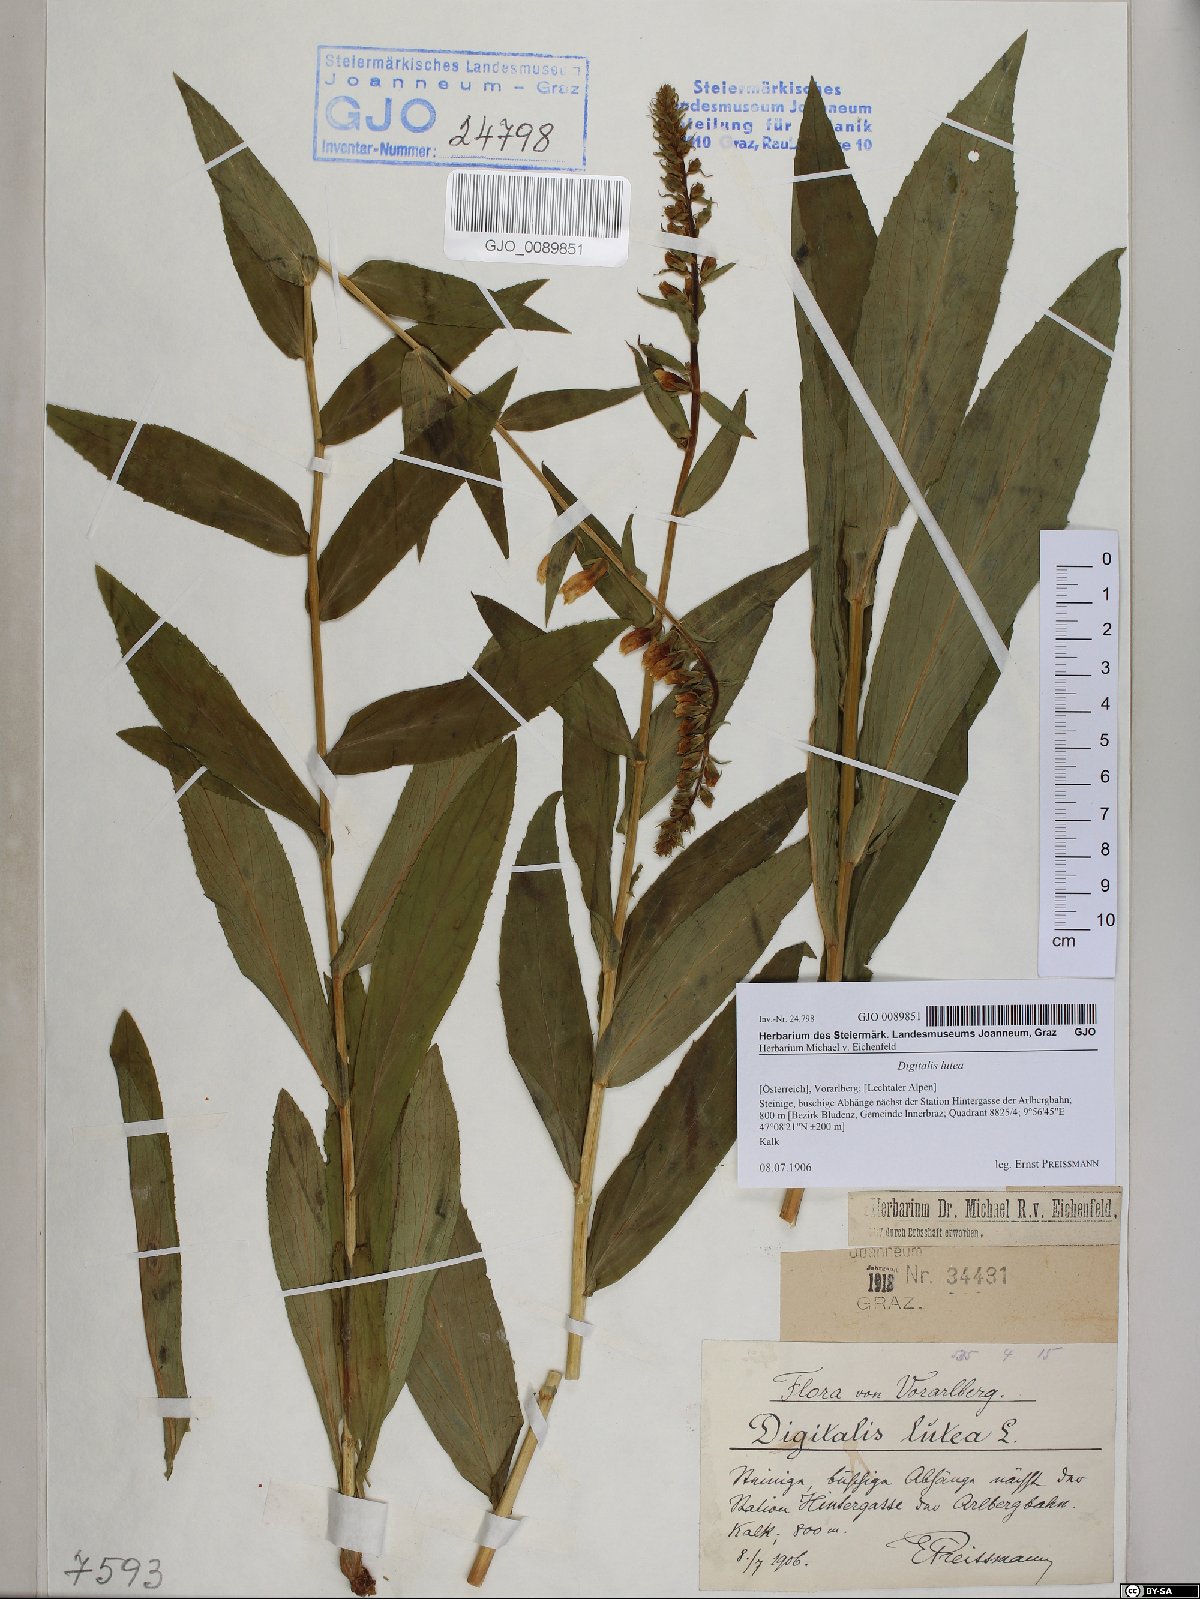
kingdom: Plantae
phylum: Tracheophyta
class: Magnoliopsida
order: Lamiales
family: Plantaginaceae
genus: Digitalis
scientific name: Digitalis lutea
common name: Straw foxglove
